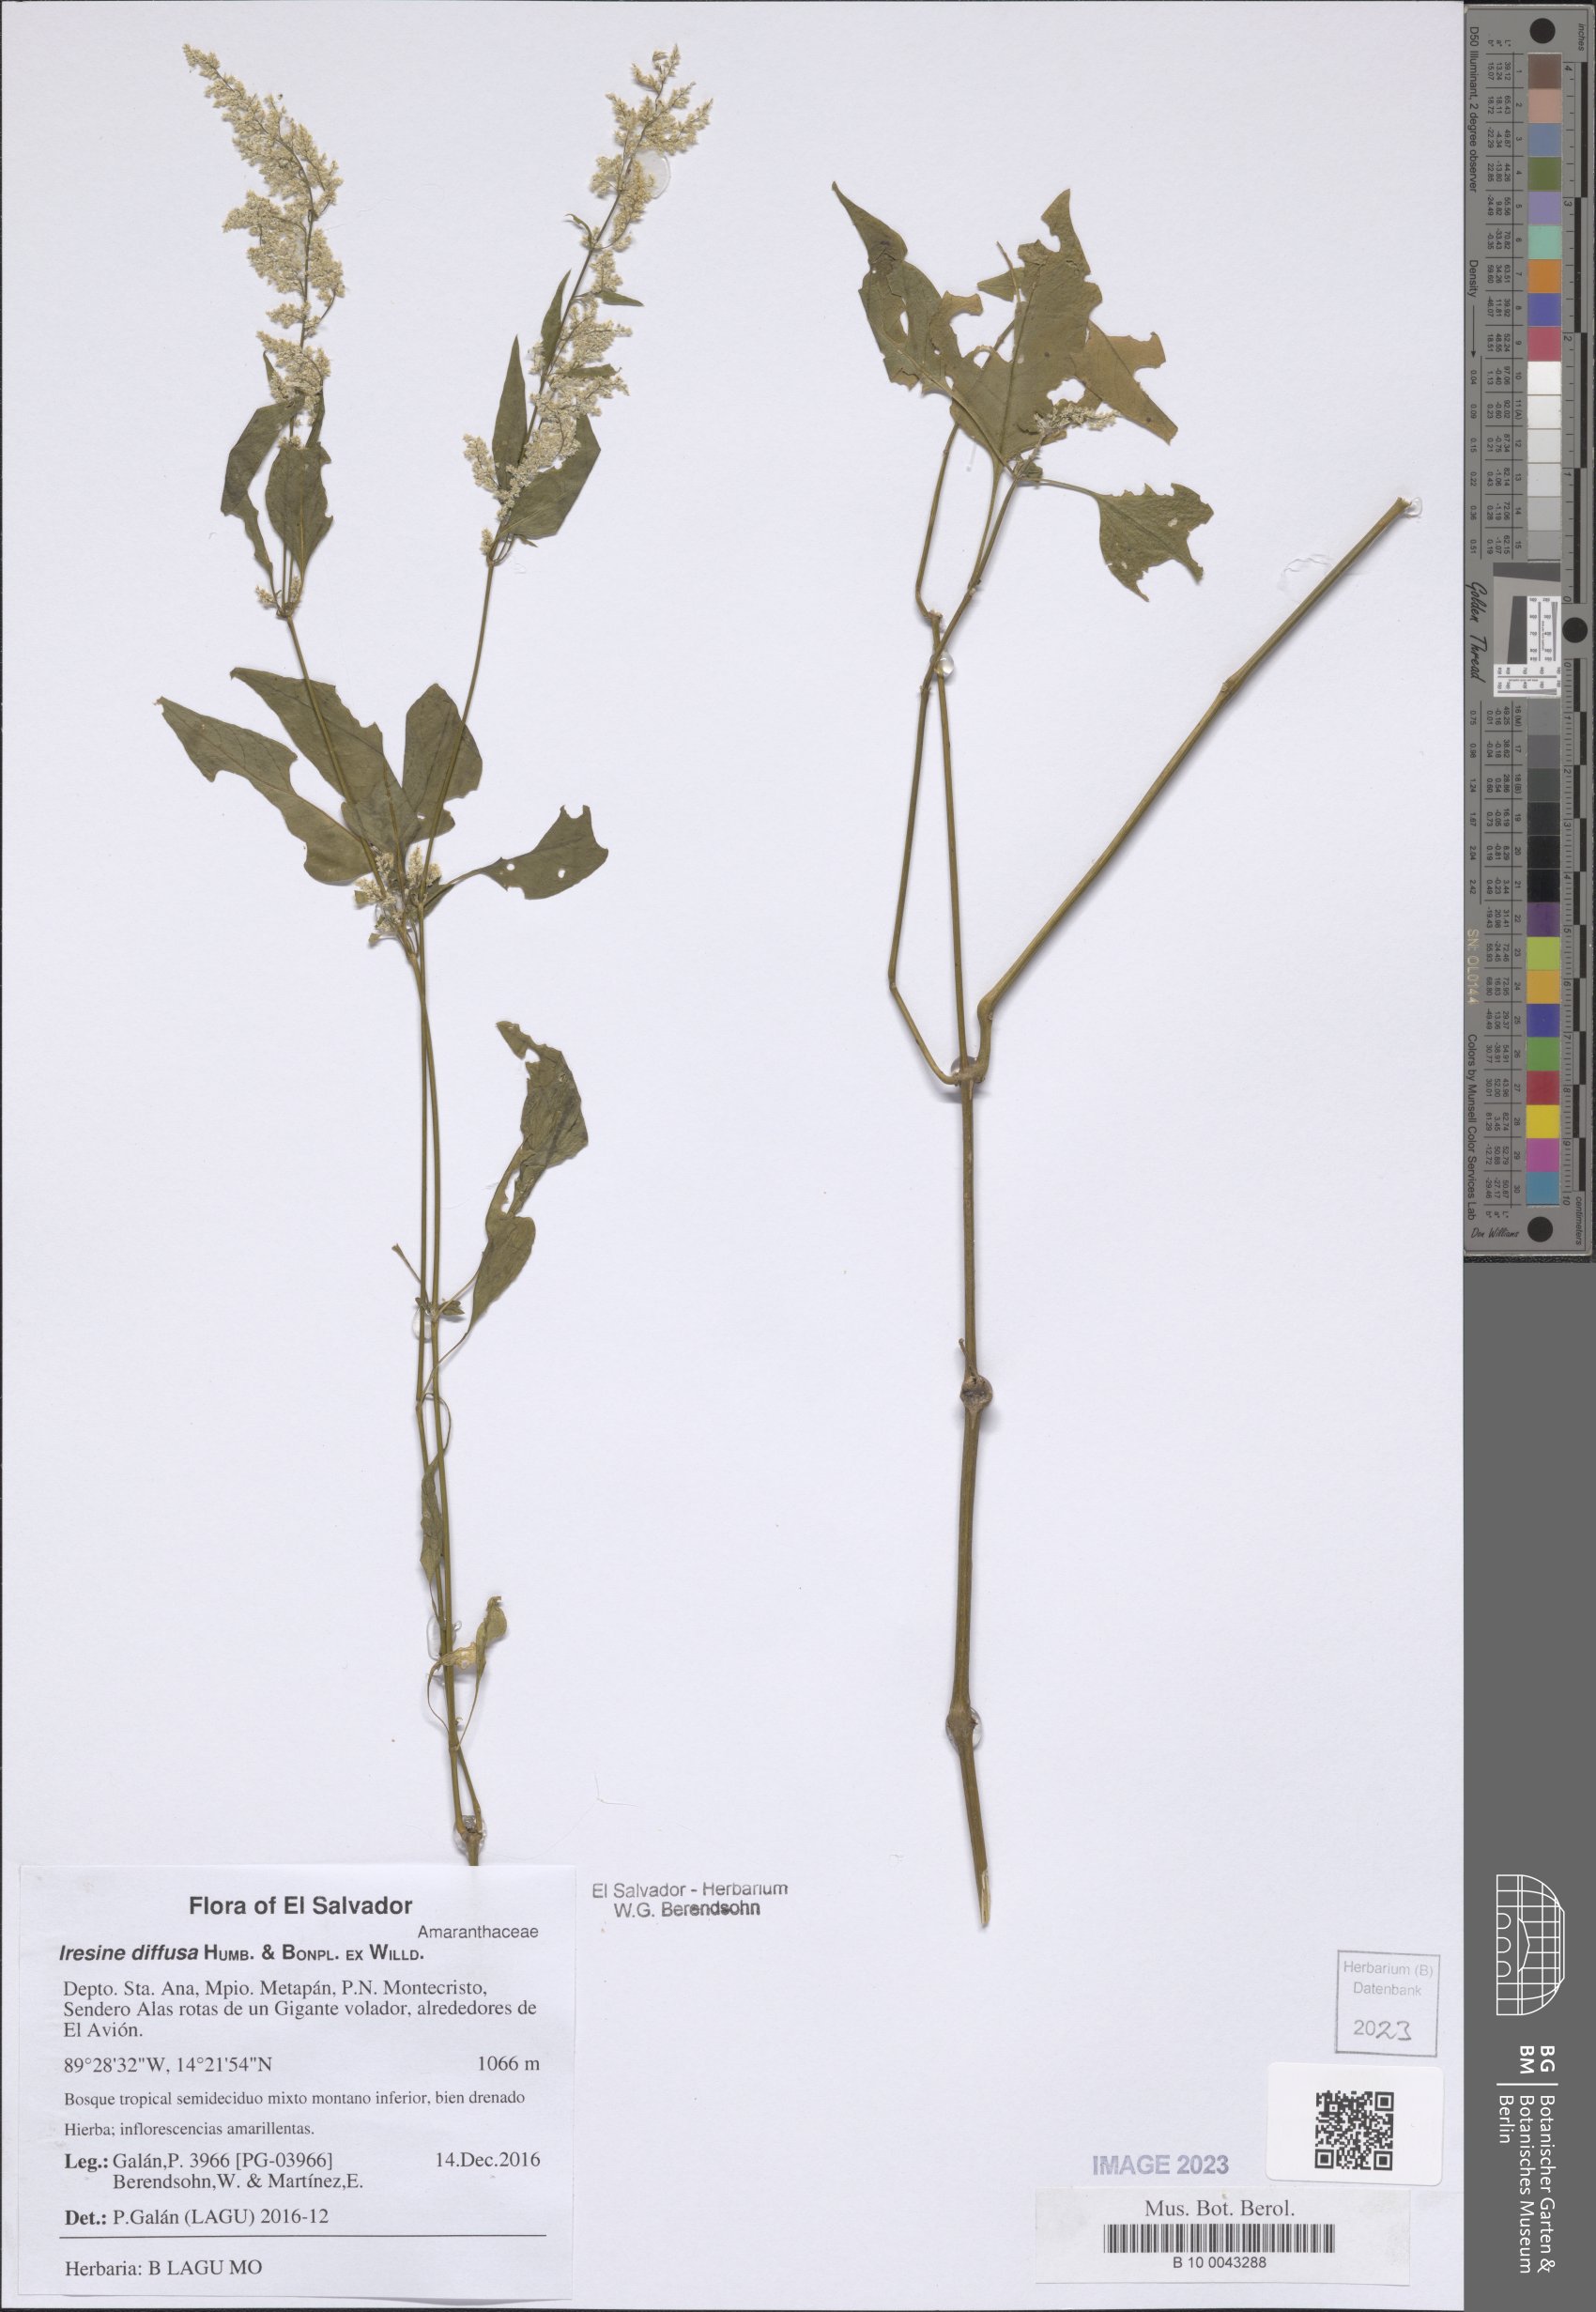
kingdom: Plantae
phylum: Tracheophyta
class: Magnoliopsida
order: Caryophyllales
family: Amaranthaceae
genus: Iresine
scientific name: Iresine diffusa
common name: Juba's-bush
